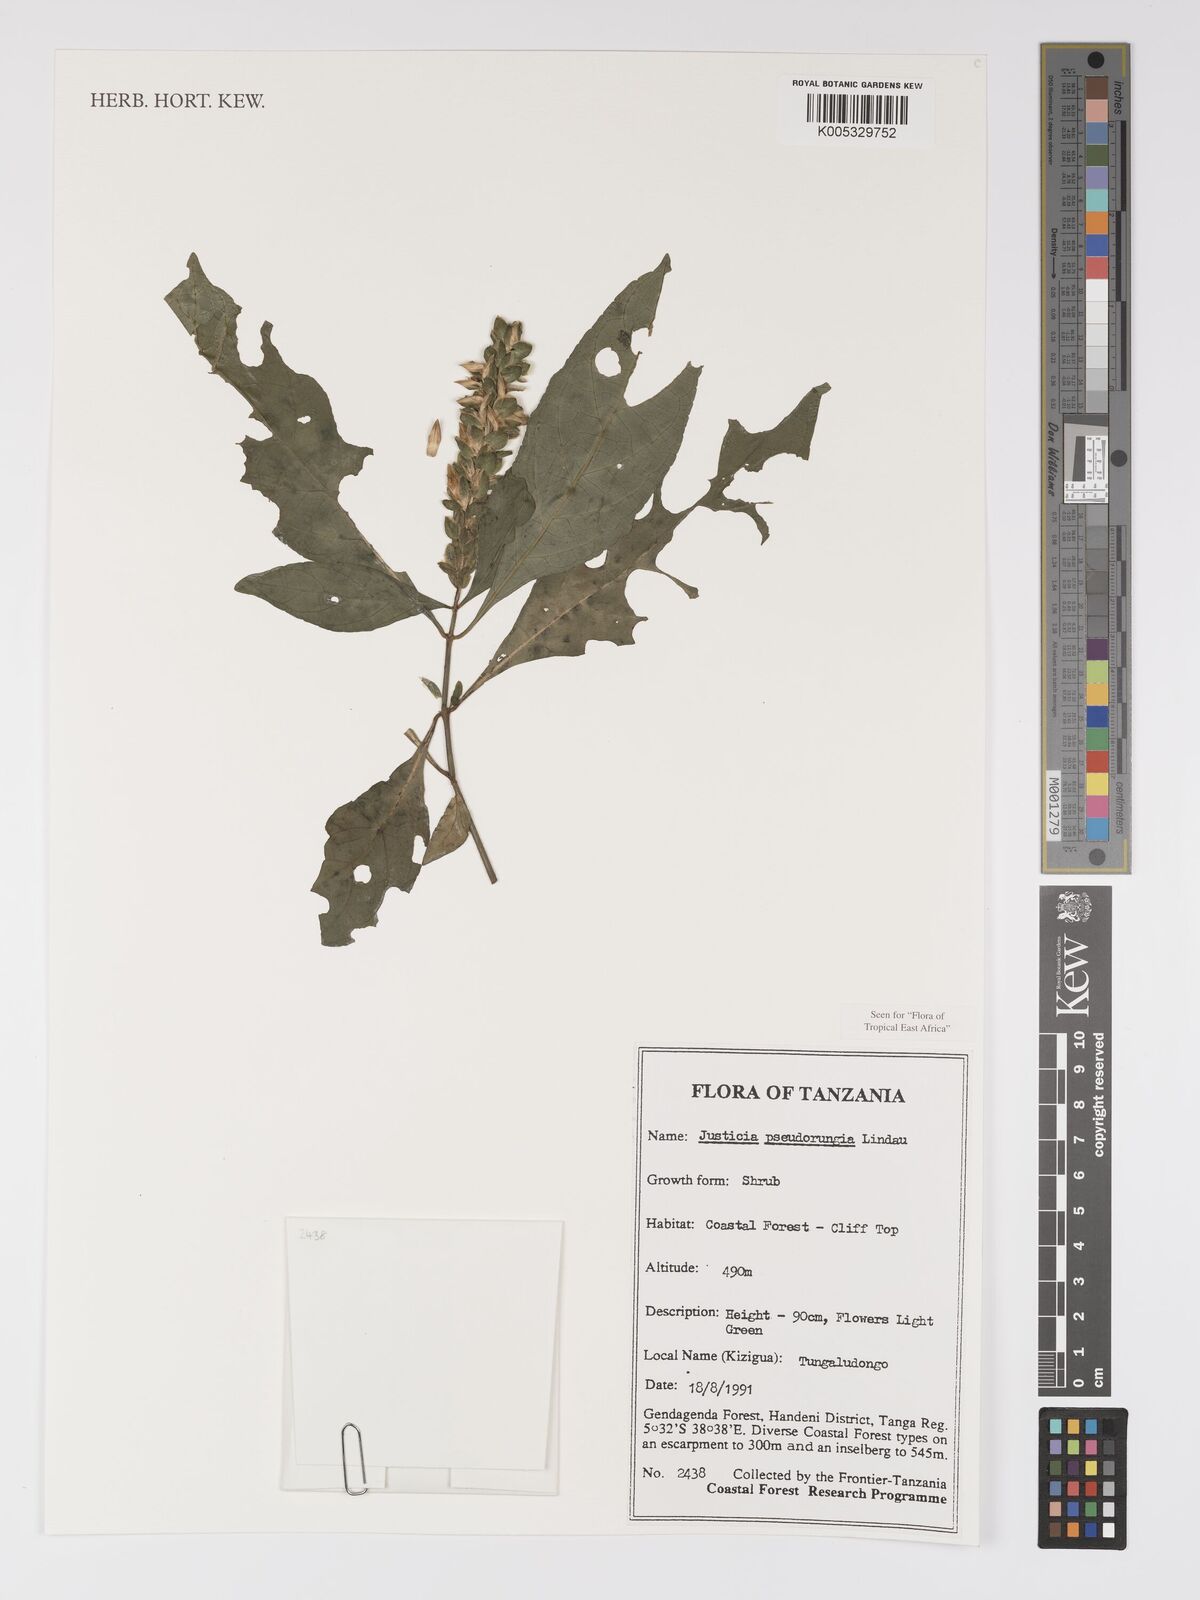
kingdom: Plantae
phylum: Tracheophyta
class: Magnoliopsida
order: Lamiales
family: Acanthaceae
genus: Justicia
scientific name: Justicia pseudorungia
